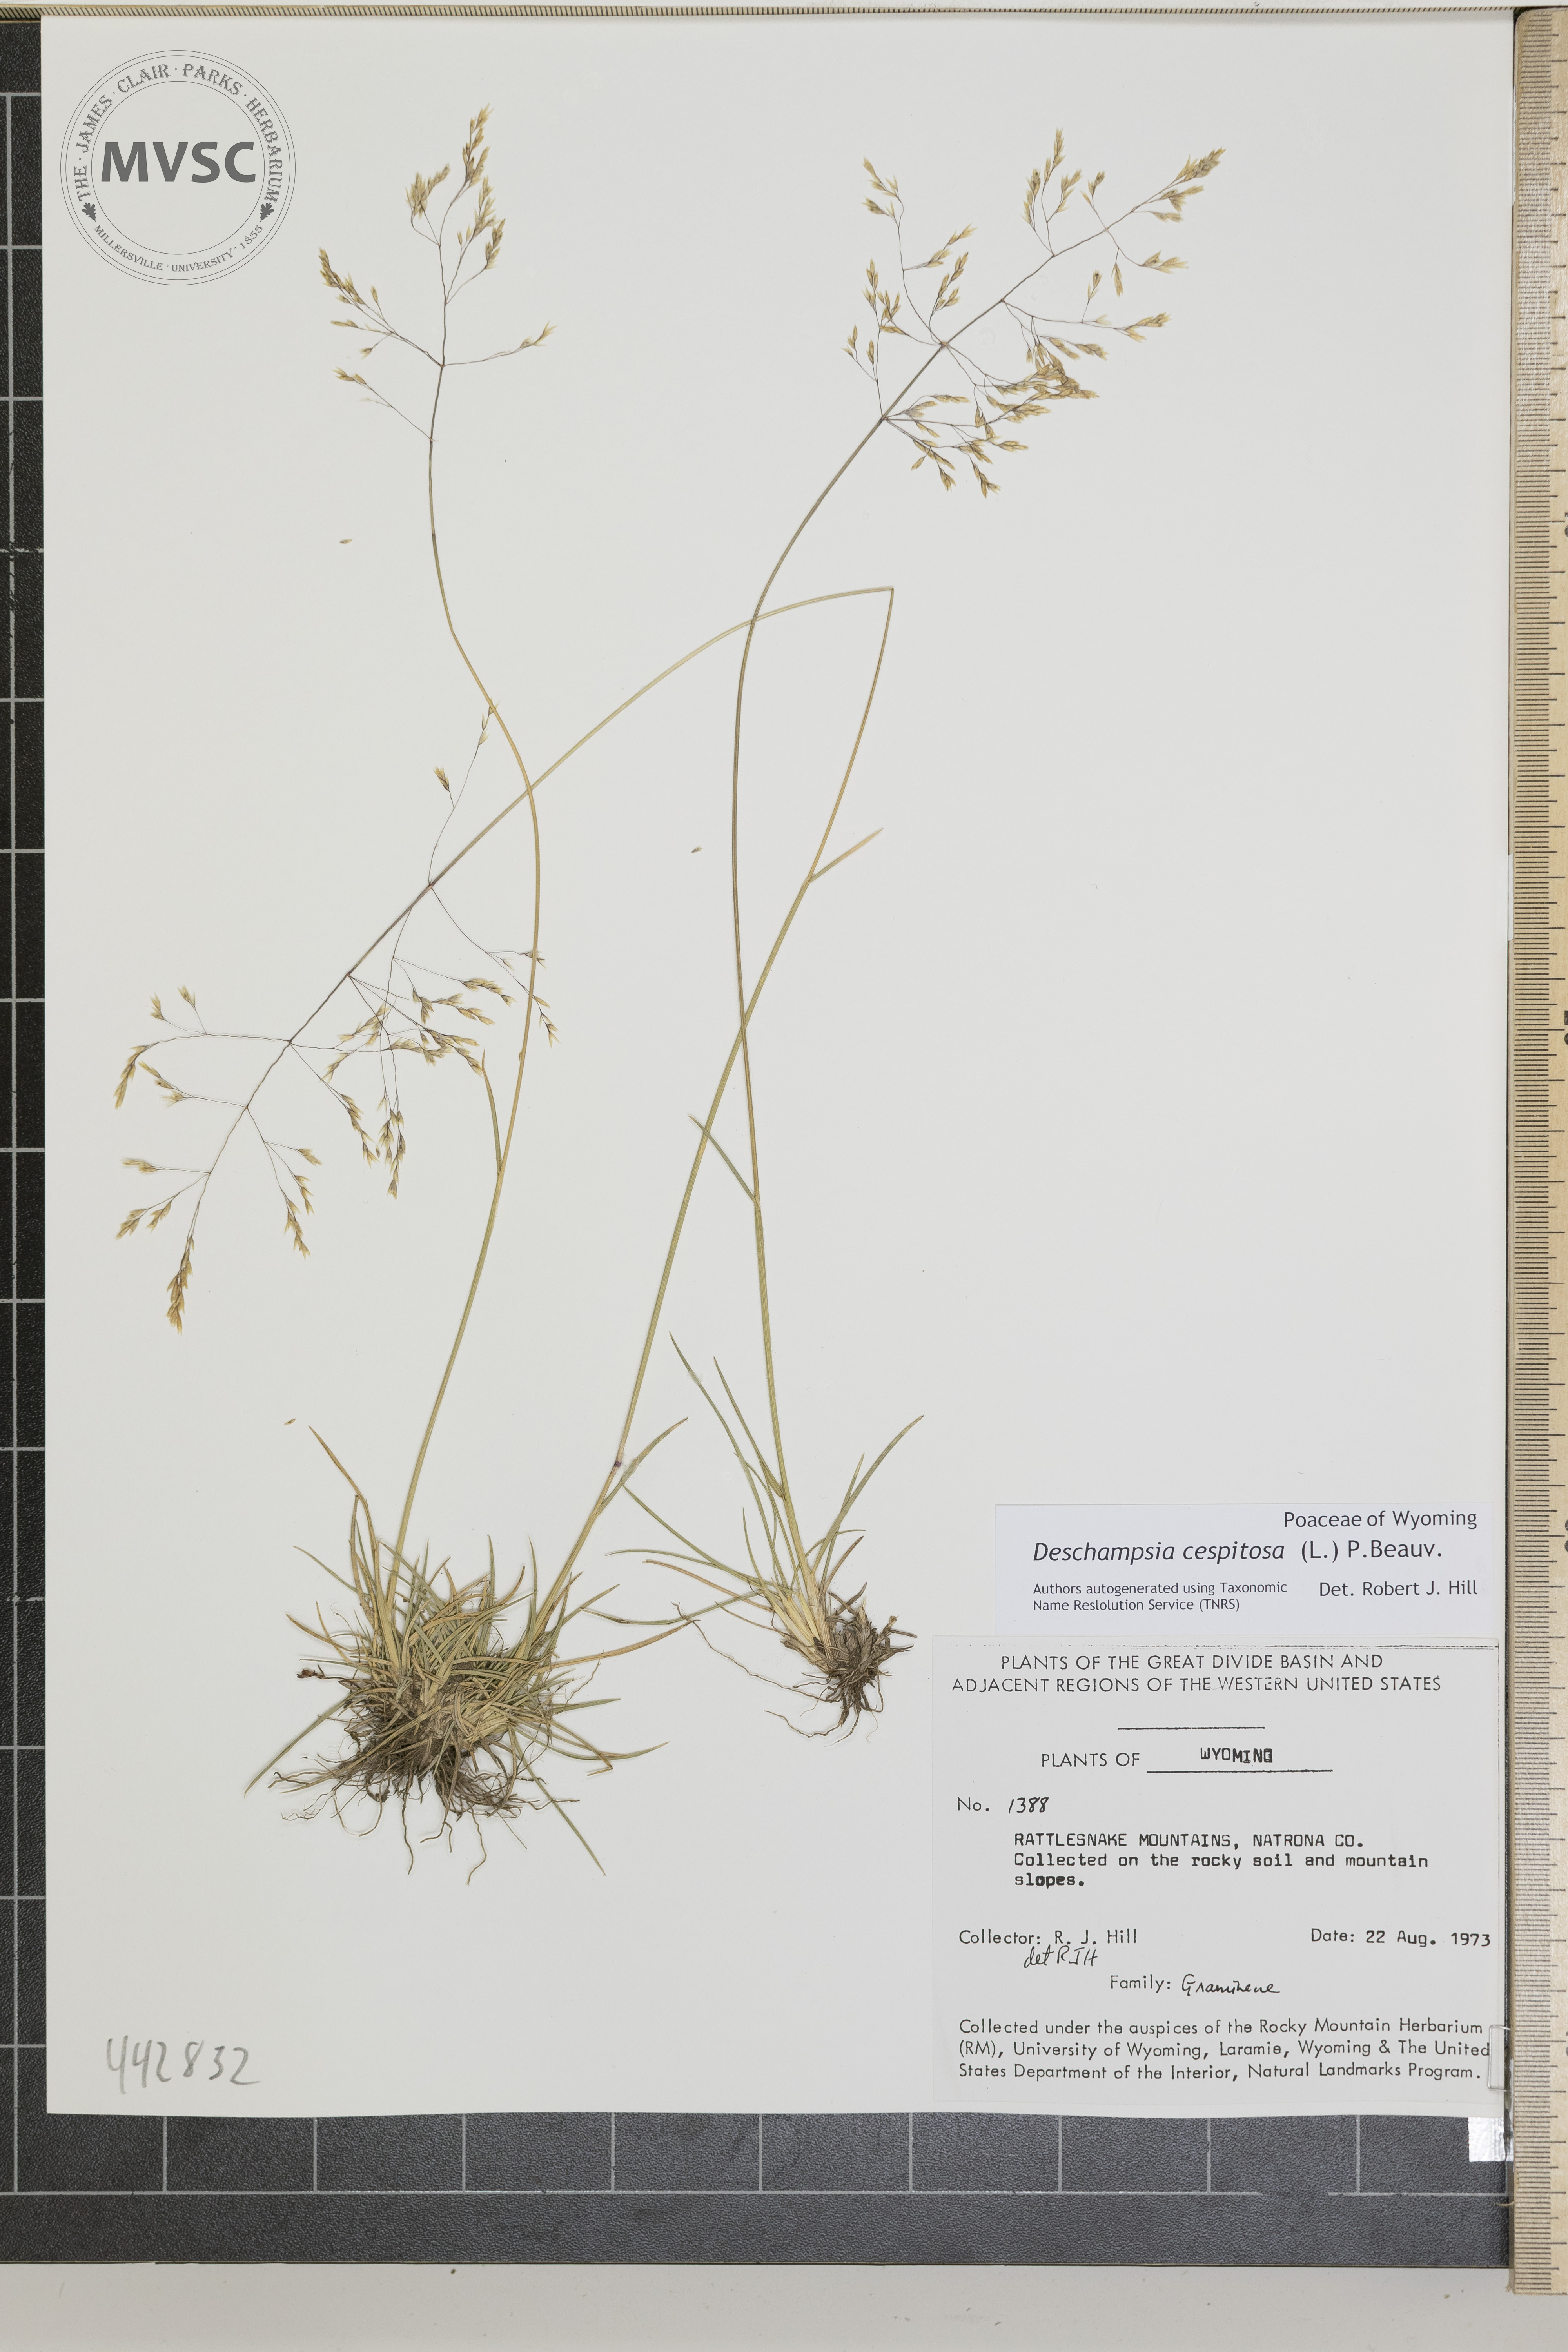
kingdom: Plantae
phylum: Tracheophyta
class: Liliopsida
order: Poales
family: Poaceae
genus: Deschampsia
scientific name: Deschampsia cespitosa
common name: Tufted hair-grass
